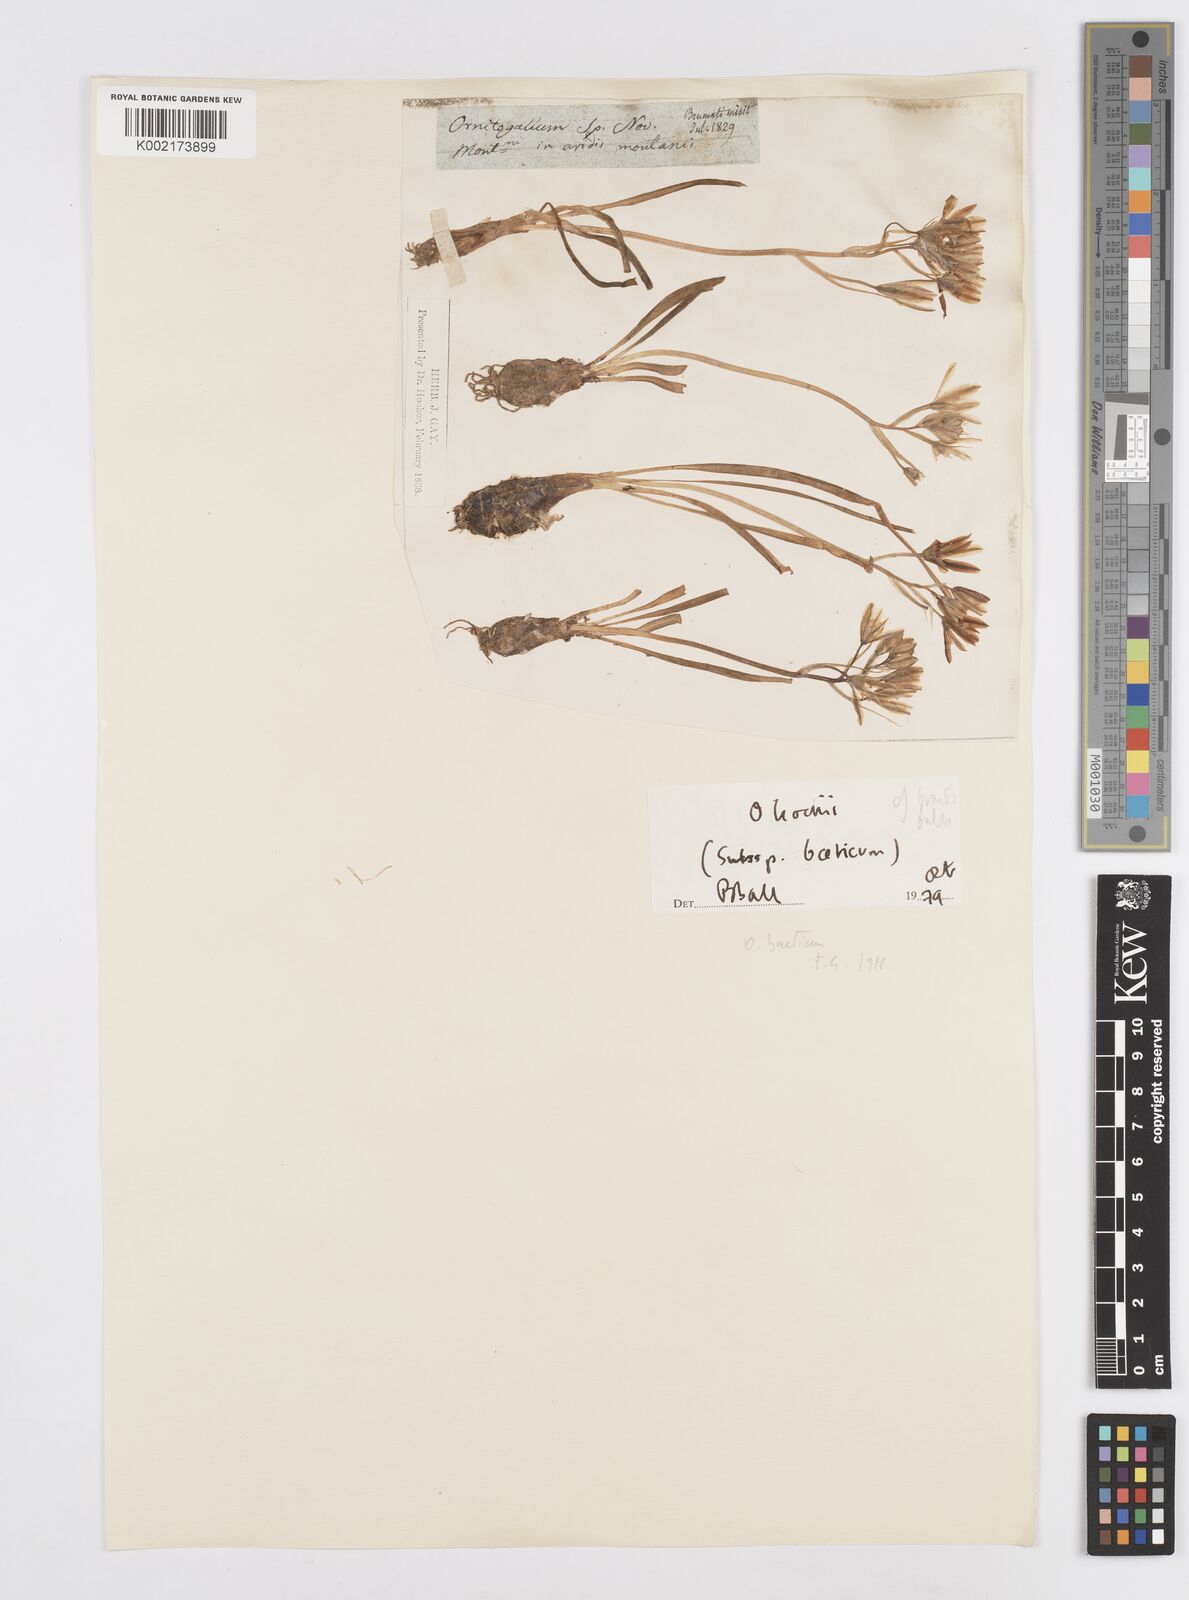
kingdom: Plantae
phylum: Tracheophyta
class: Liliopsida
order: Asparagales
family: Asparagaceae
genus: Ornithogalum
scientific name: Ornithogalum orthophyllum
